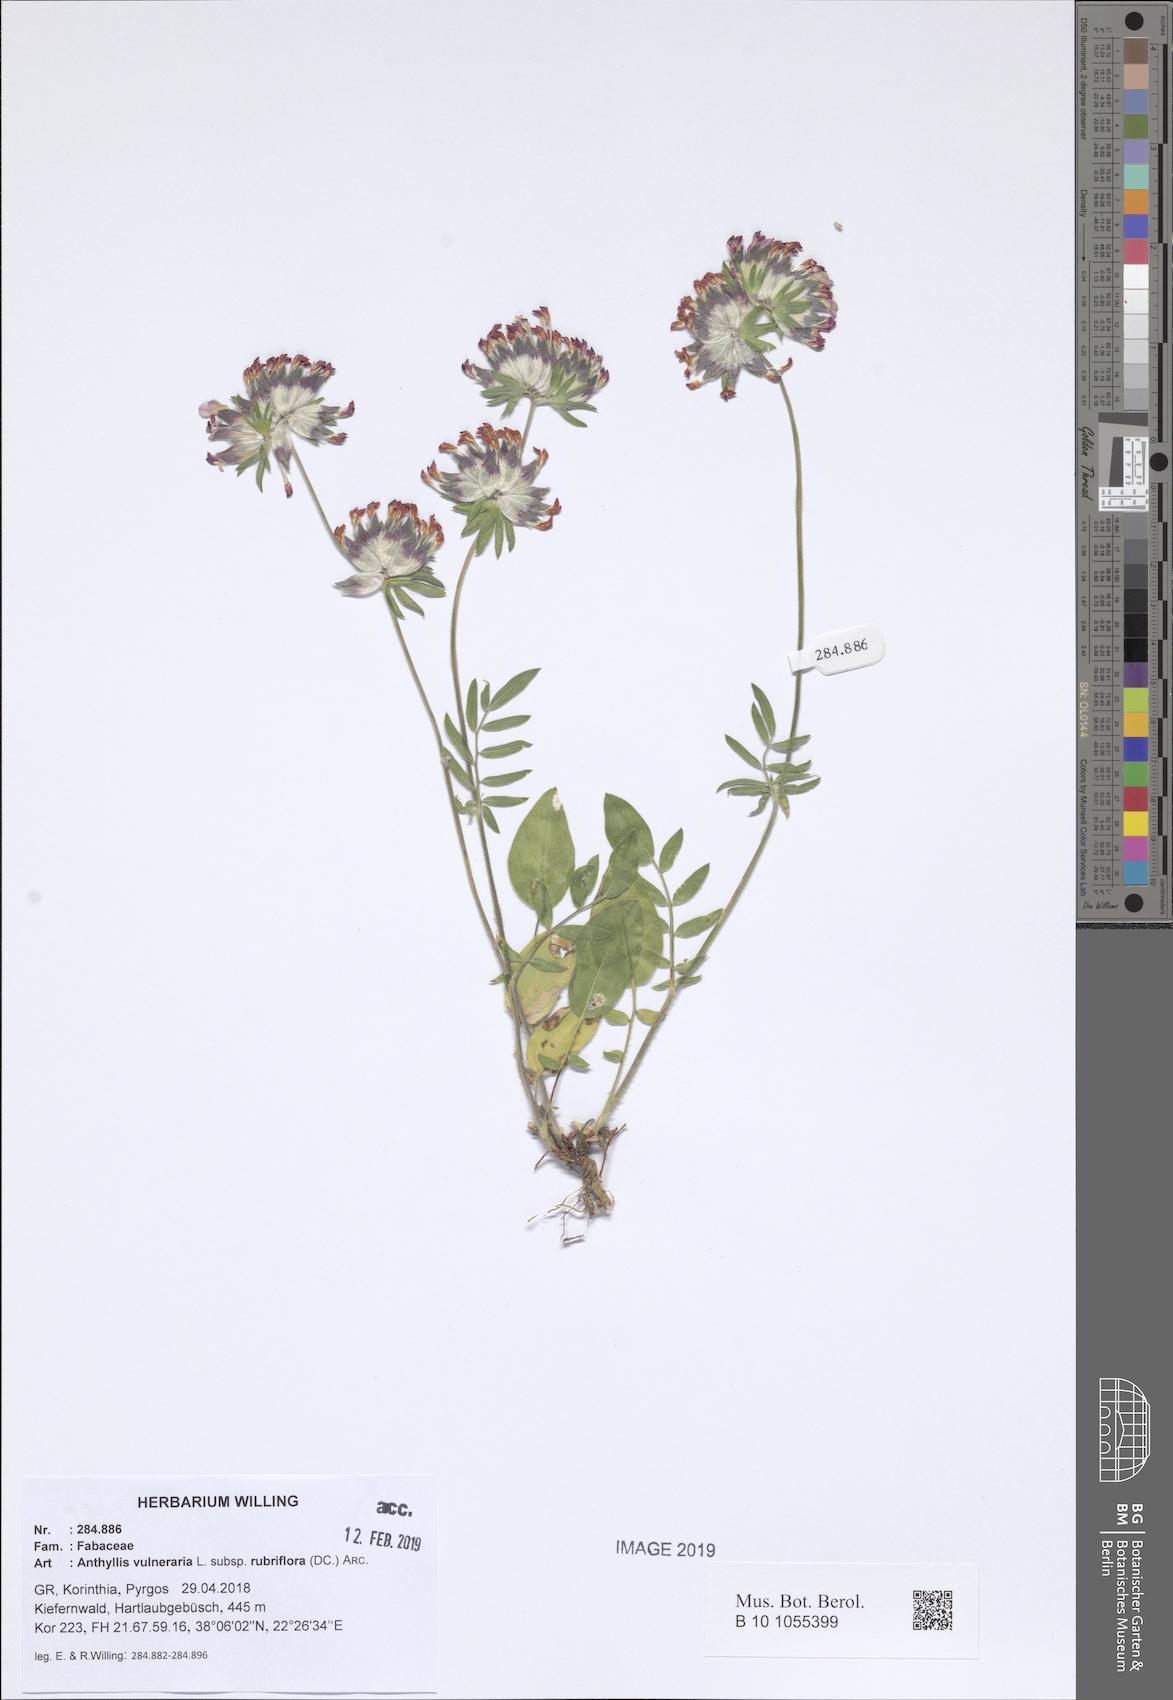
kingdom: Plantae
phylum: Tracheophyta
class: Magnoliopsida
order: Fabales
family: Fabaceae
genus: Anthyllis
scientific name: Anthyllis vulneraria
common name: Kidney vetch
